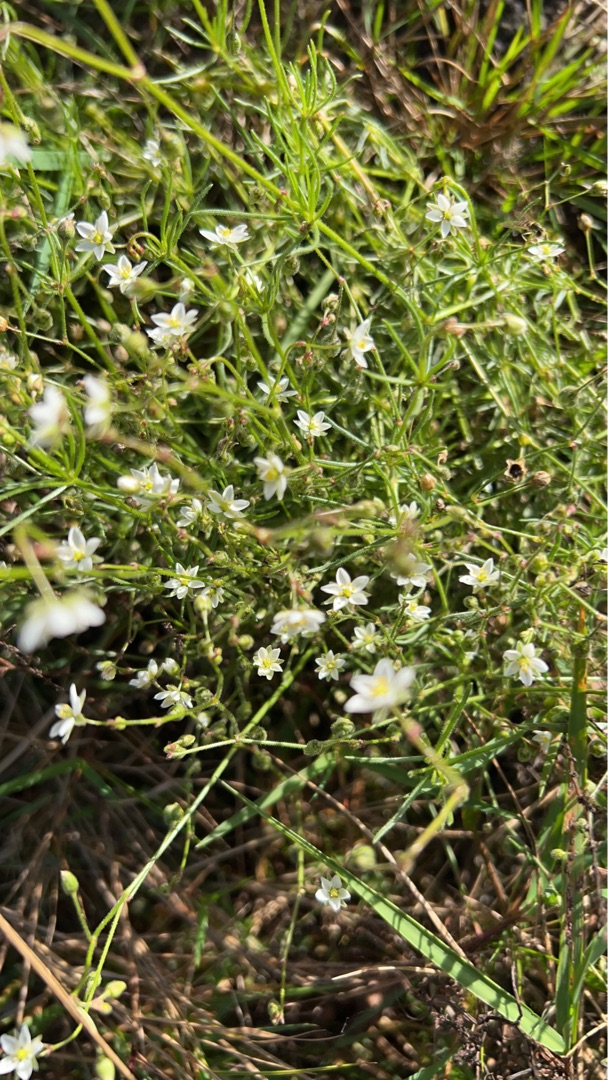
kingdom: Plantae
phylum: Tracheophyta
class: Magnoliopsida
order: Caryophyllales
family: Caryophyllaceae
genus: Spergula
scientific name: Spergula arvensis
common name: Almindelig spergel
